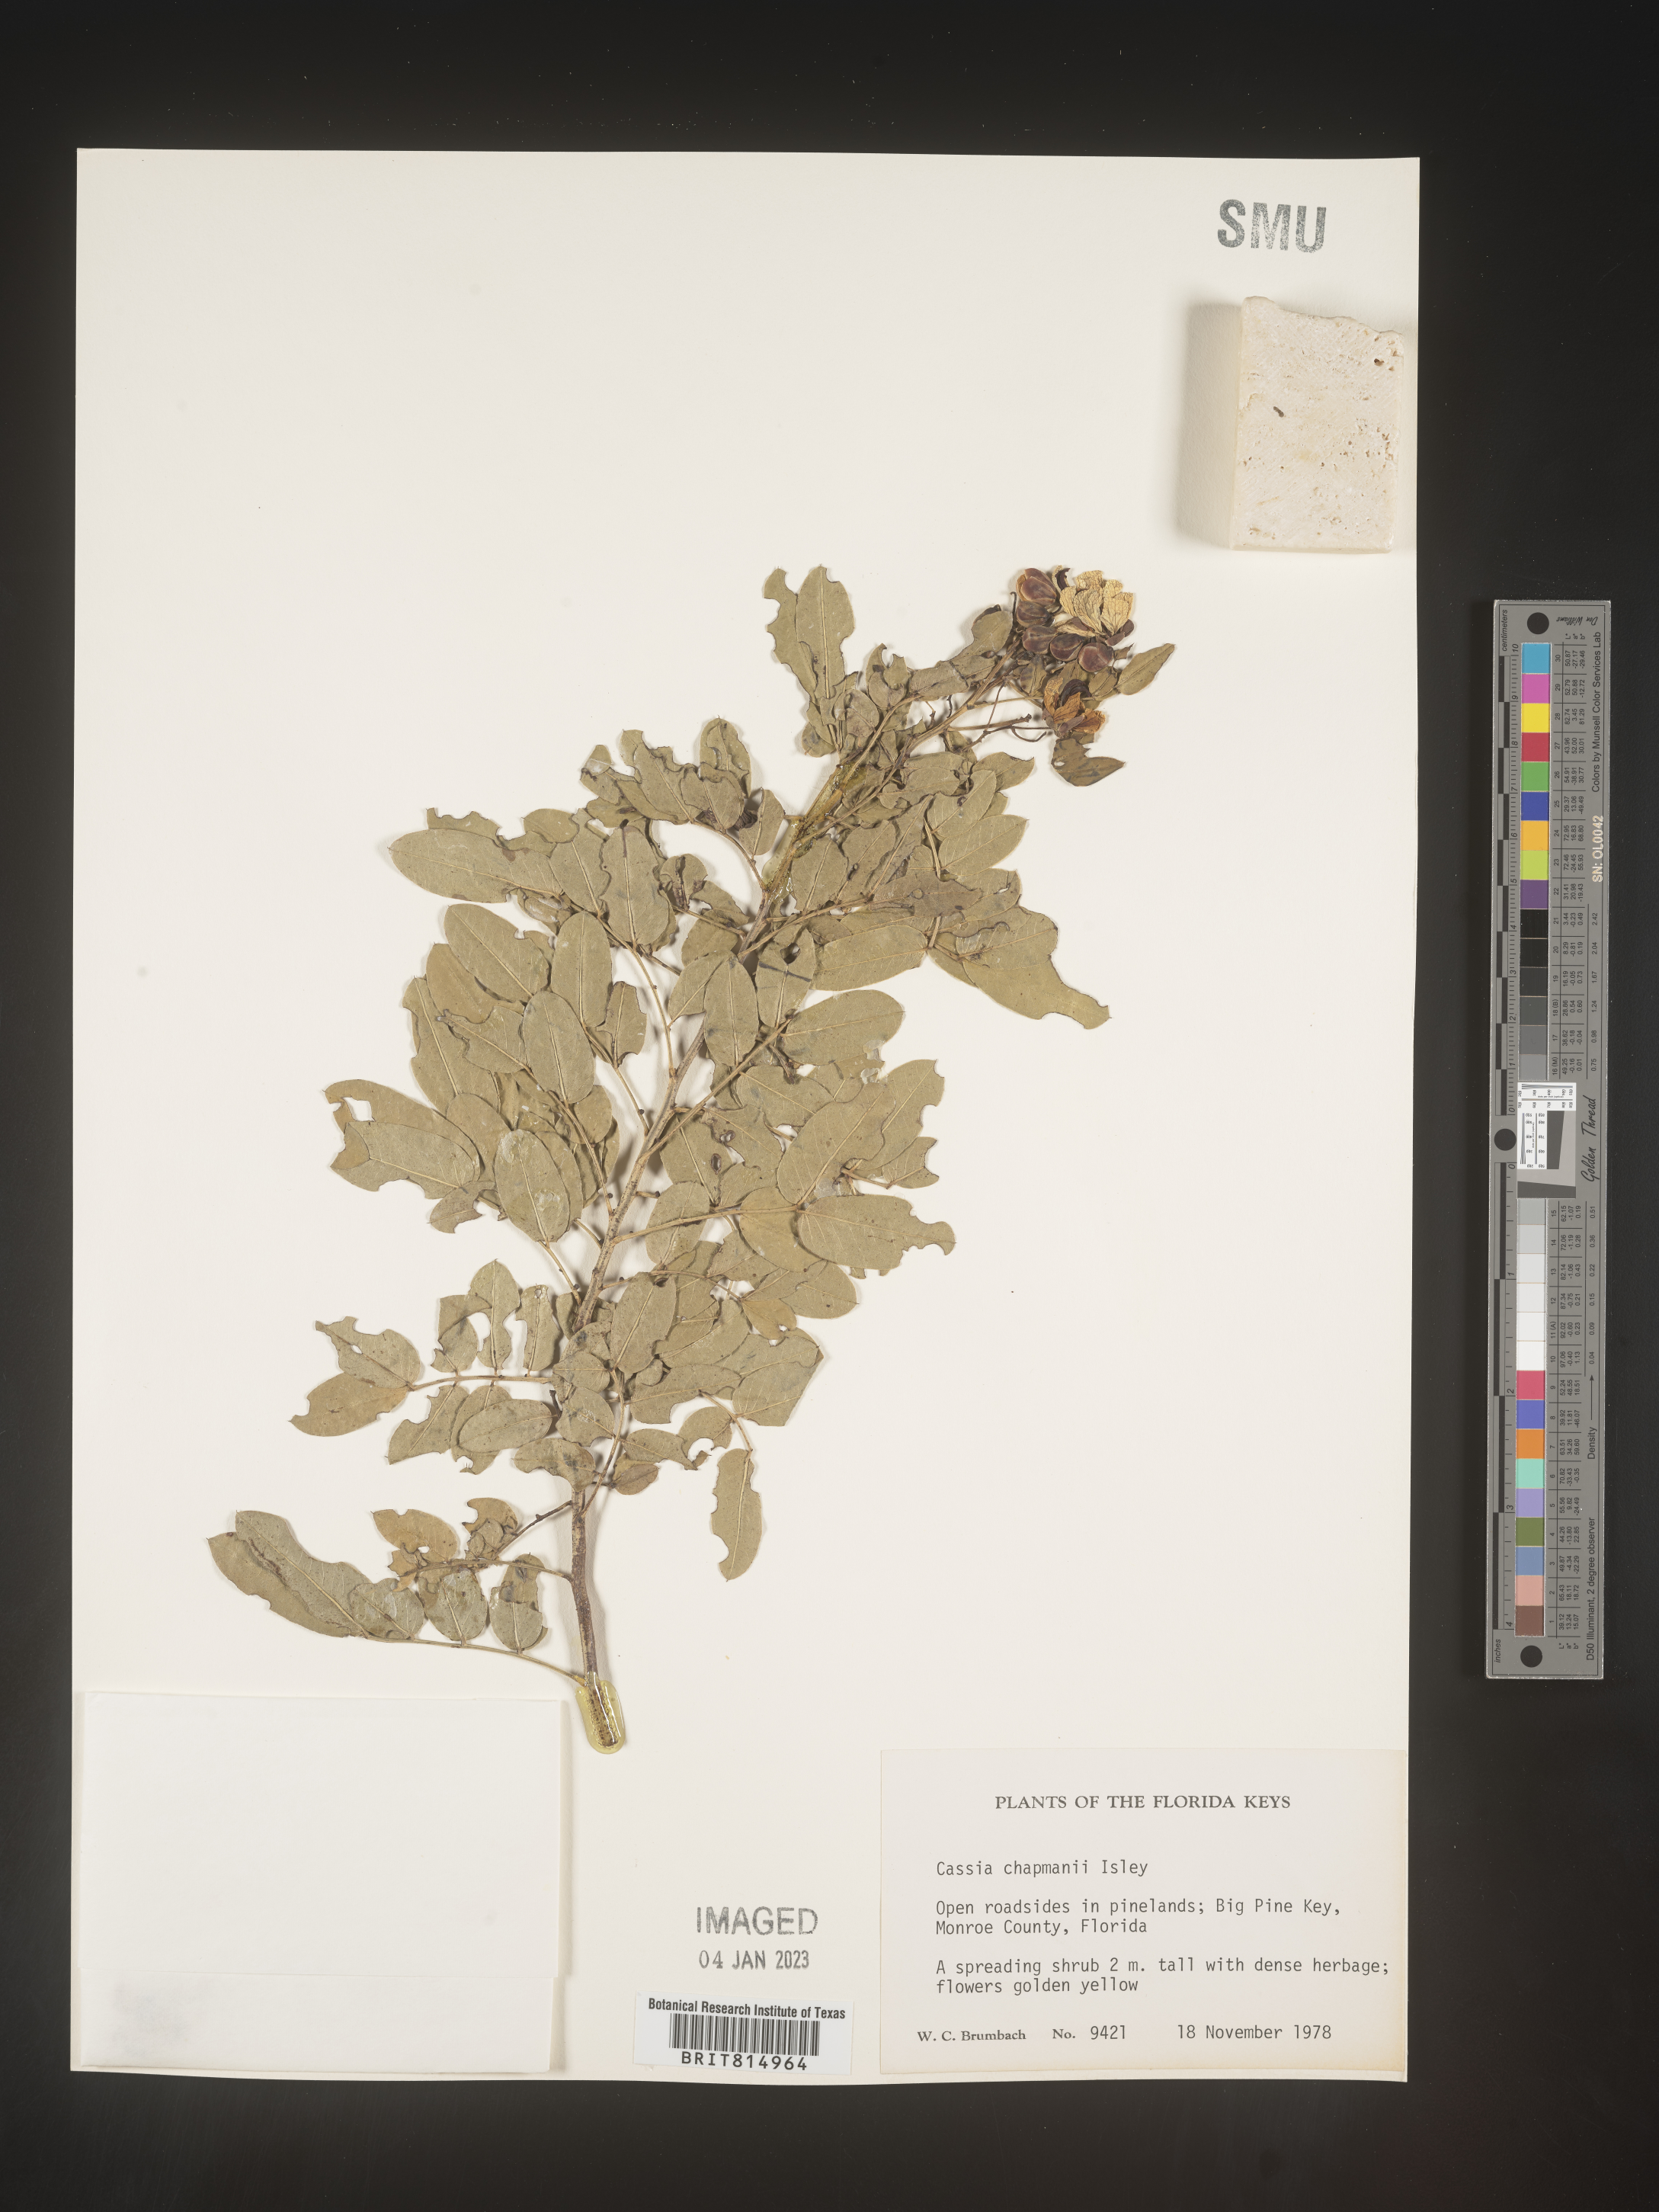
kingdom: Plantae
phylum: Tracheophyta
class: Magnoliopsida
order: Fabales
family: Fabaceae
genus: Cassia
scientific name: Cassia
